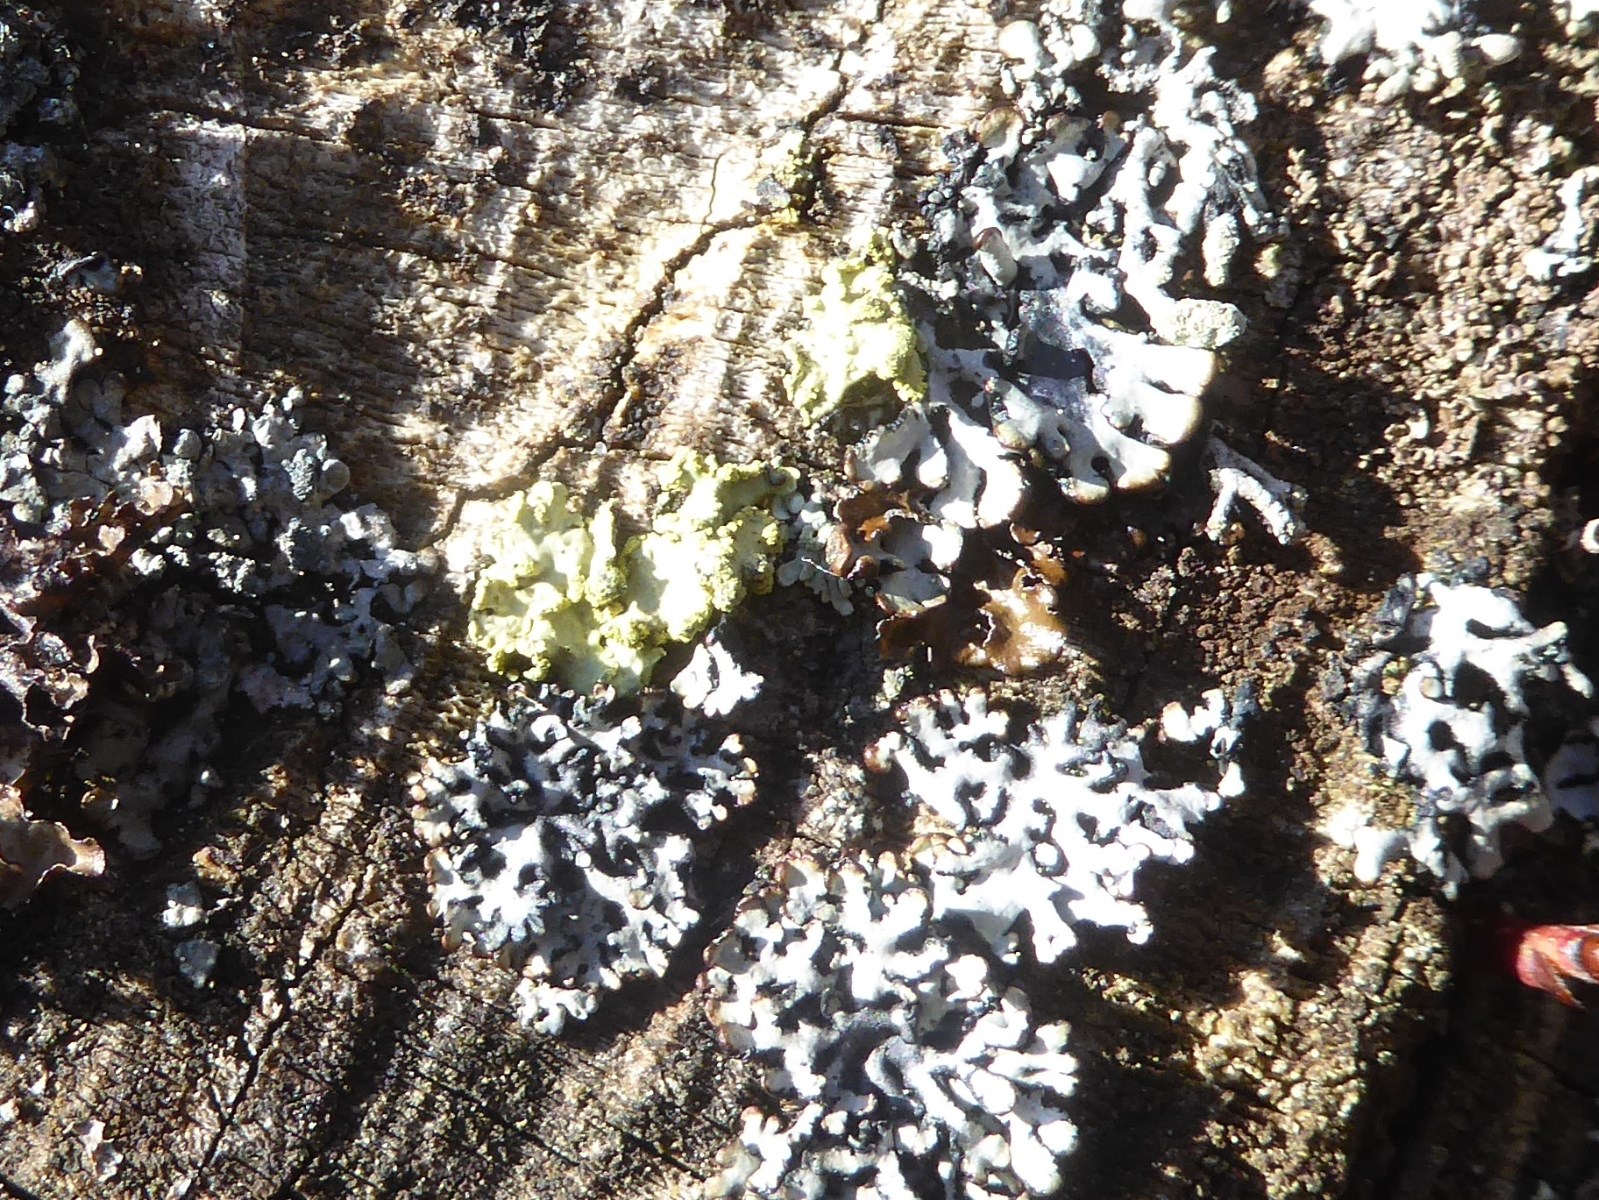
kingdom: Fungi
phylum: Ascomycota
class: Lecanoromycetes
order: Lecanorales
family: Parmeliaceae
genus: Vulpicida
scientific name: Vulpicida pinastri
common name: gul kruslav
